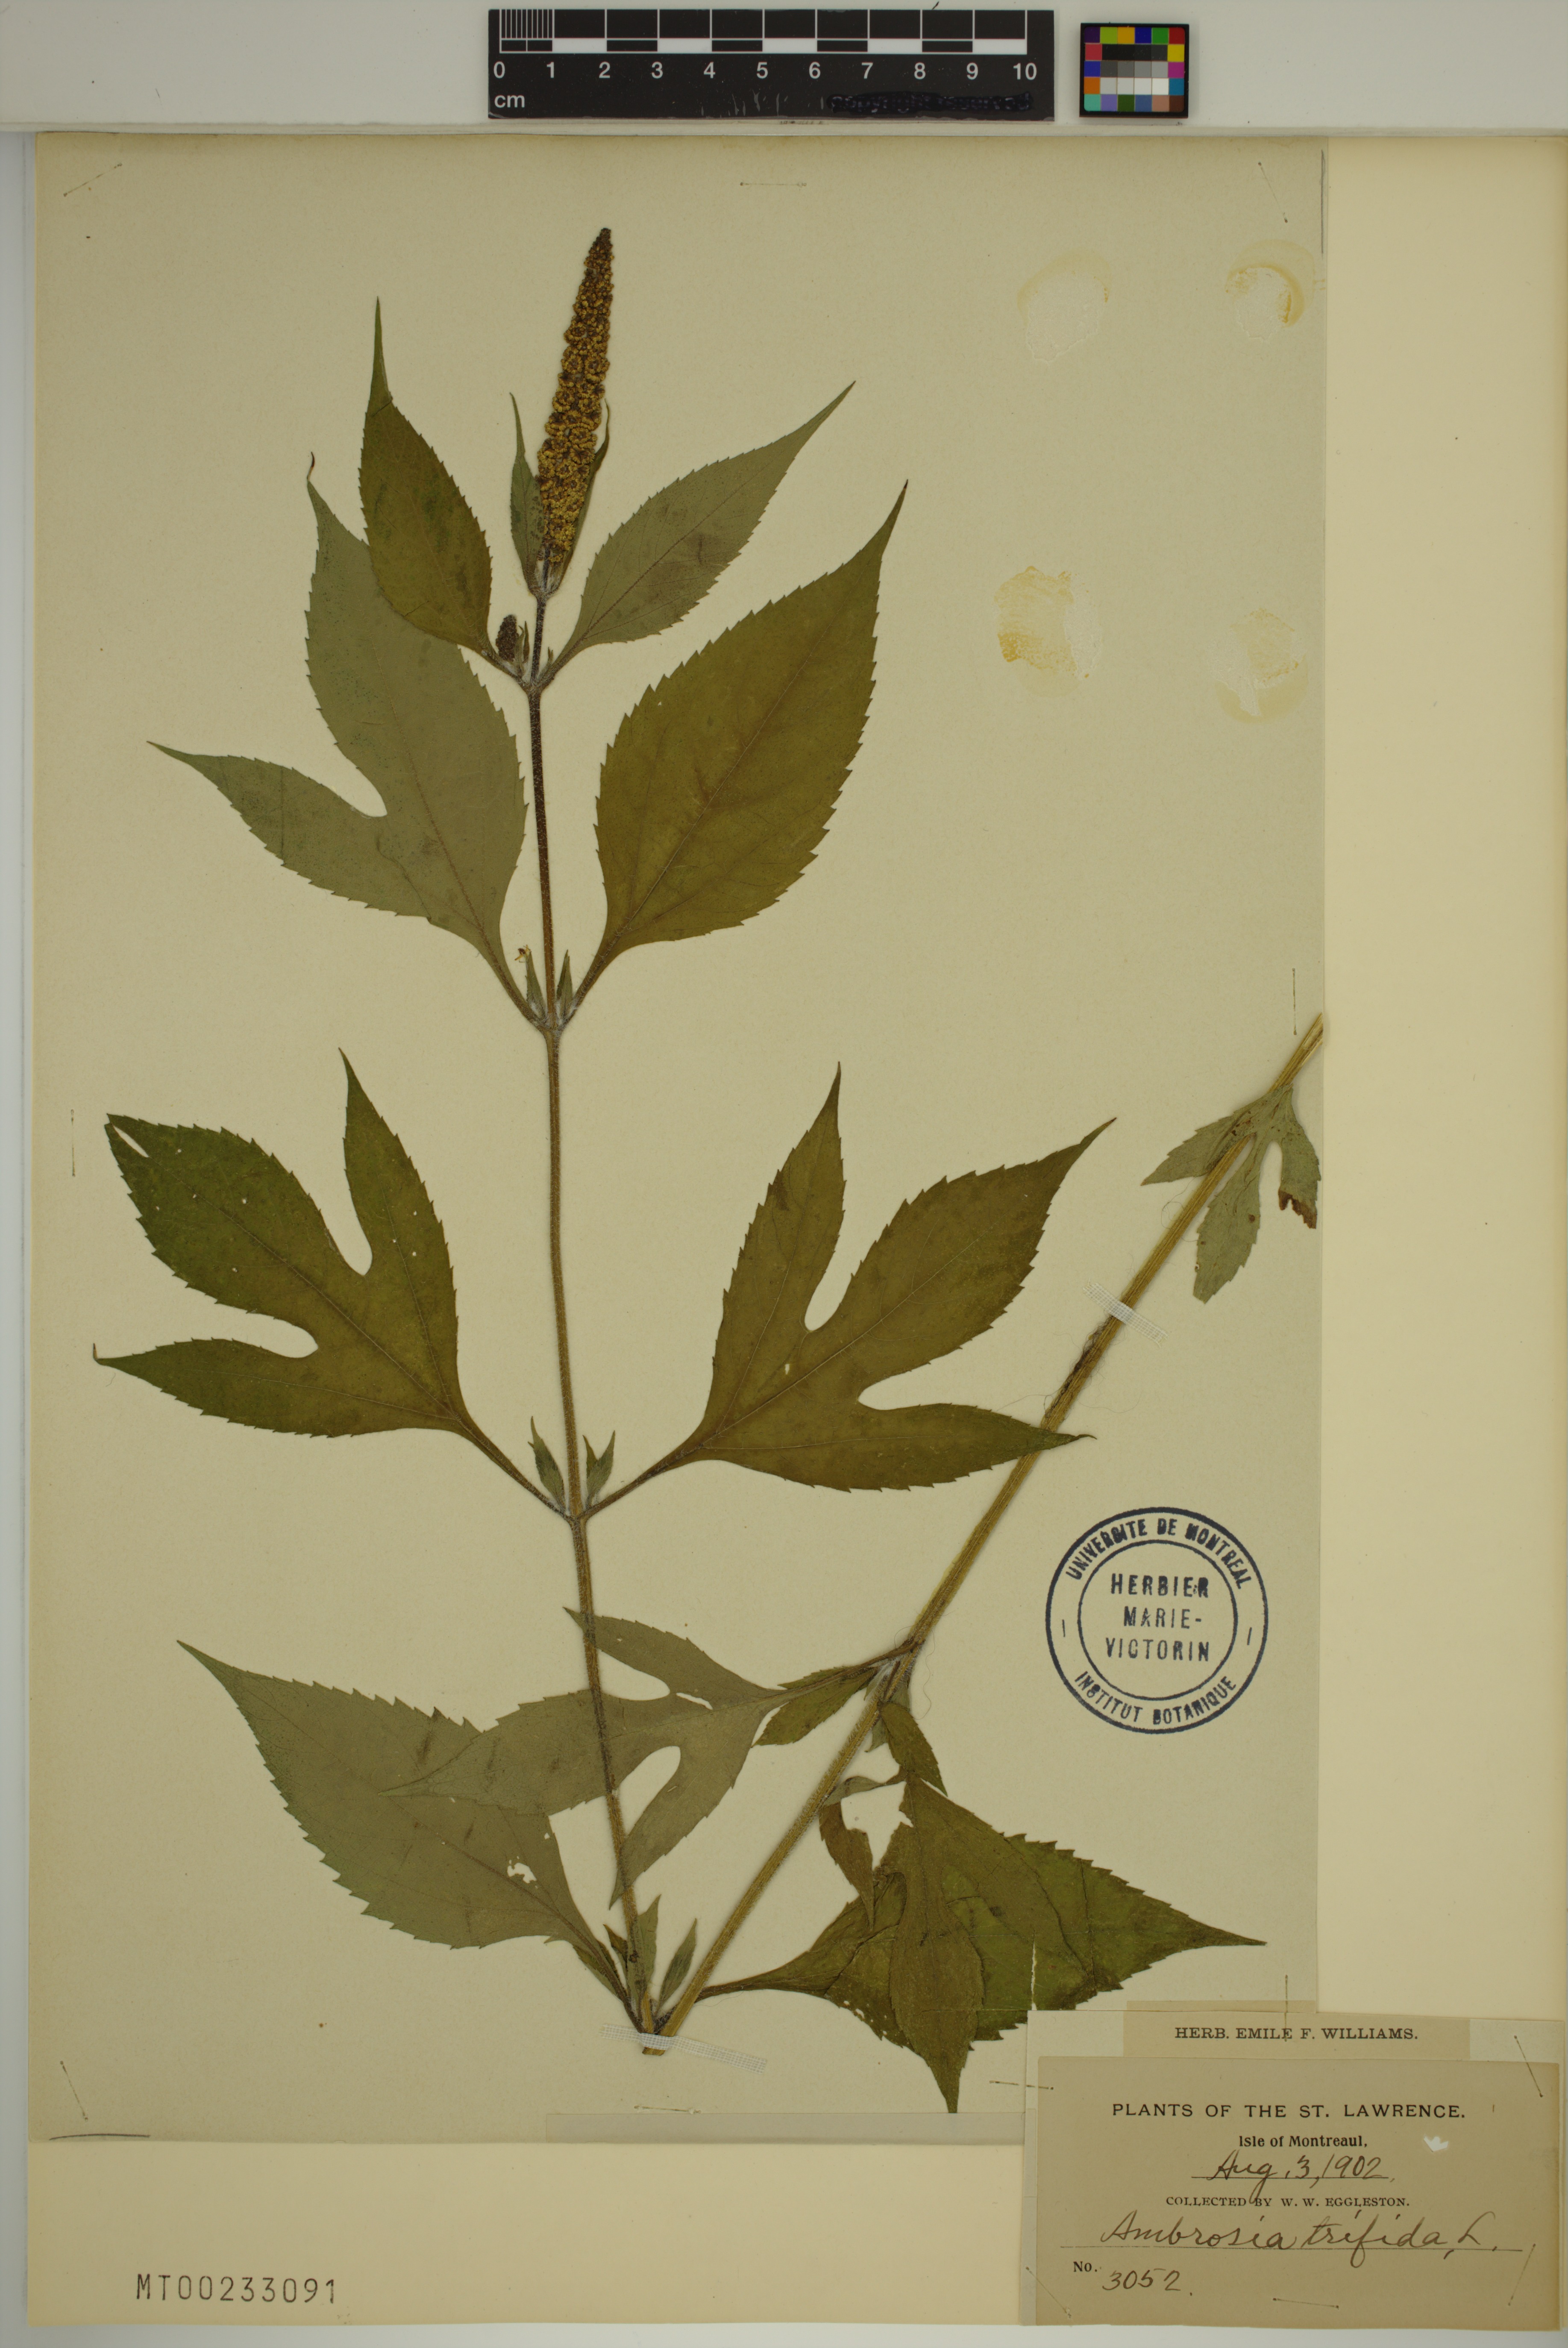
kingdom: Plantae
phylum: Tracheophyta
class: Magnoliopsida
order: Asterales
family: Asteraceae
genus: Ambrosia
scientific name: Ambrosia trifida
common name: Giant ragweed
